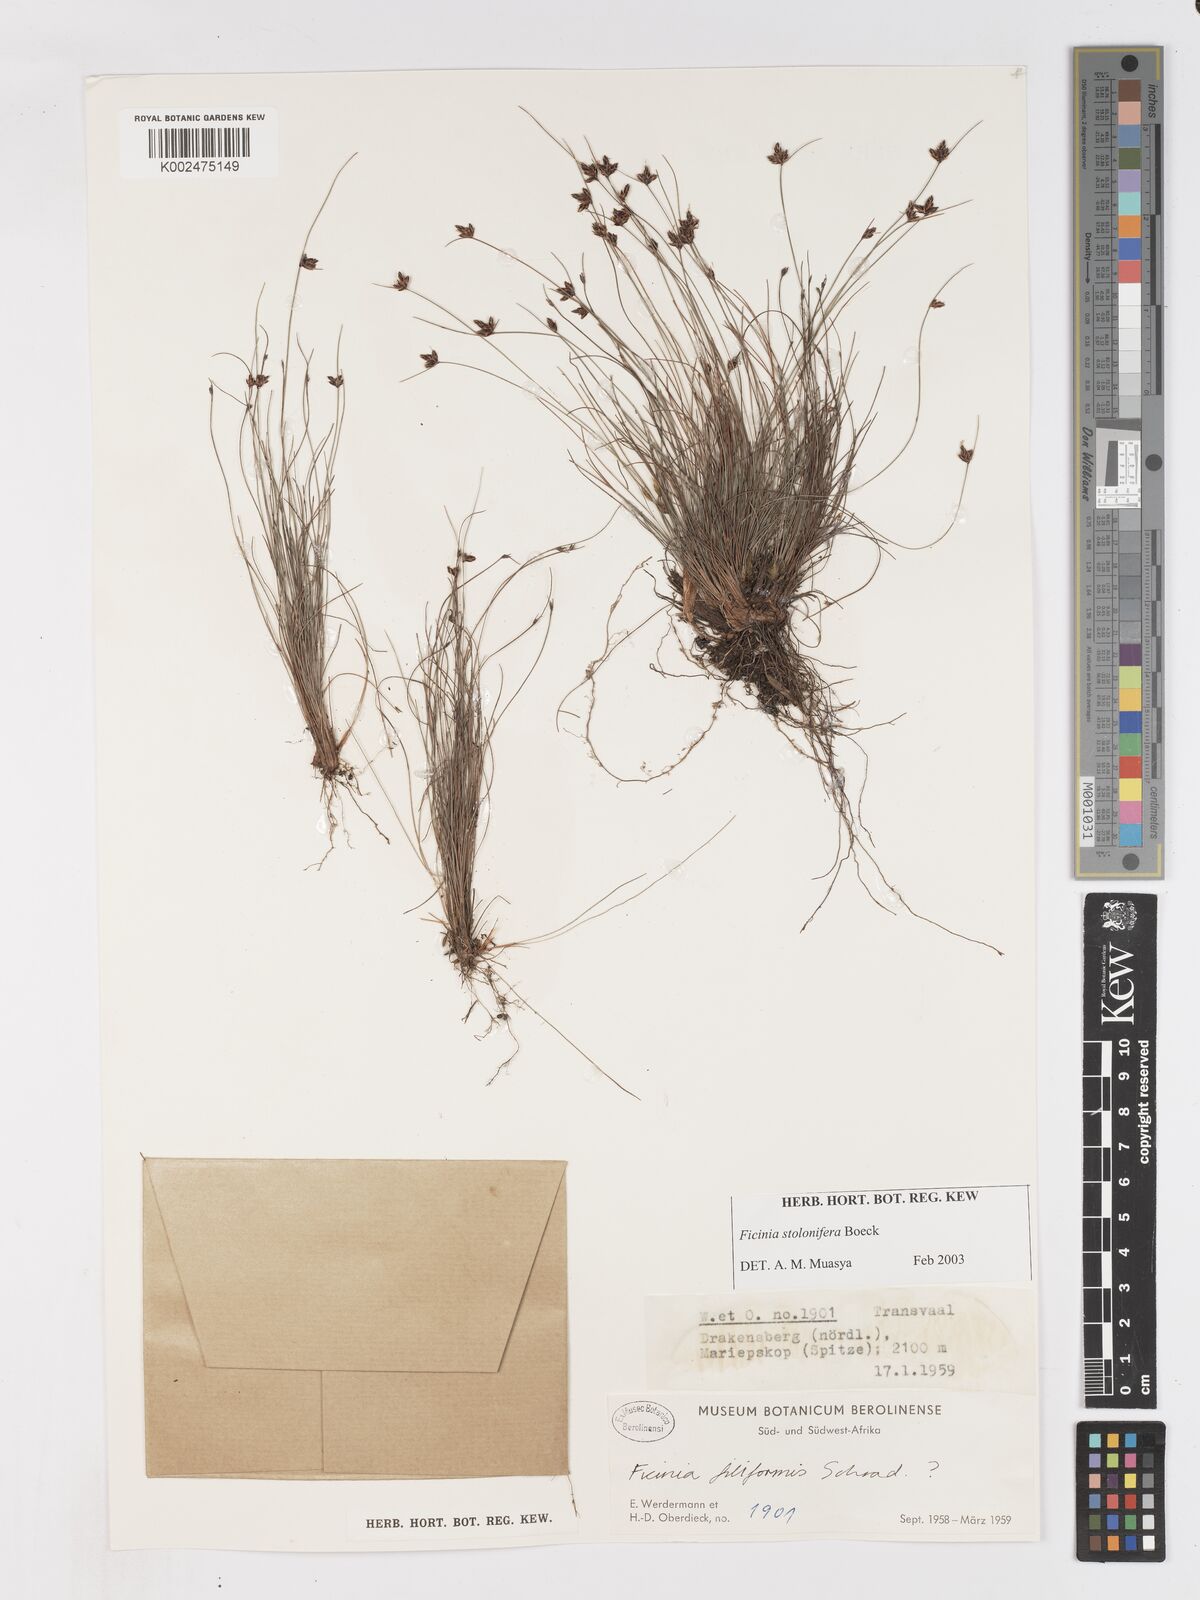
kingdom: Plantae
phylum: Tracheophyta
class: Liliopsida
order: Poales
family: Cyperaceae
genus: Ficinia
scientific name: Ficinia stolonifera
